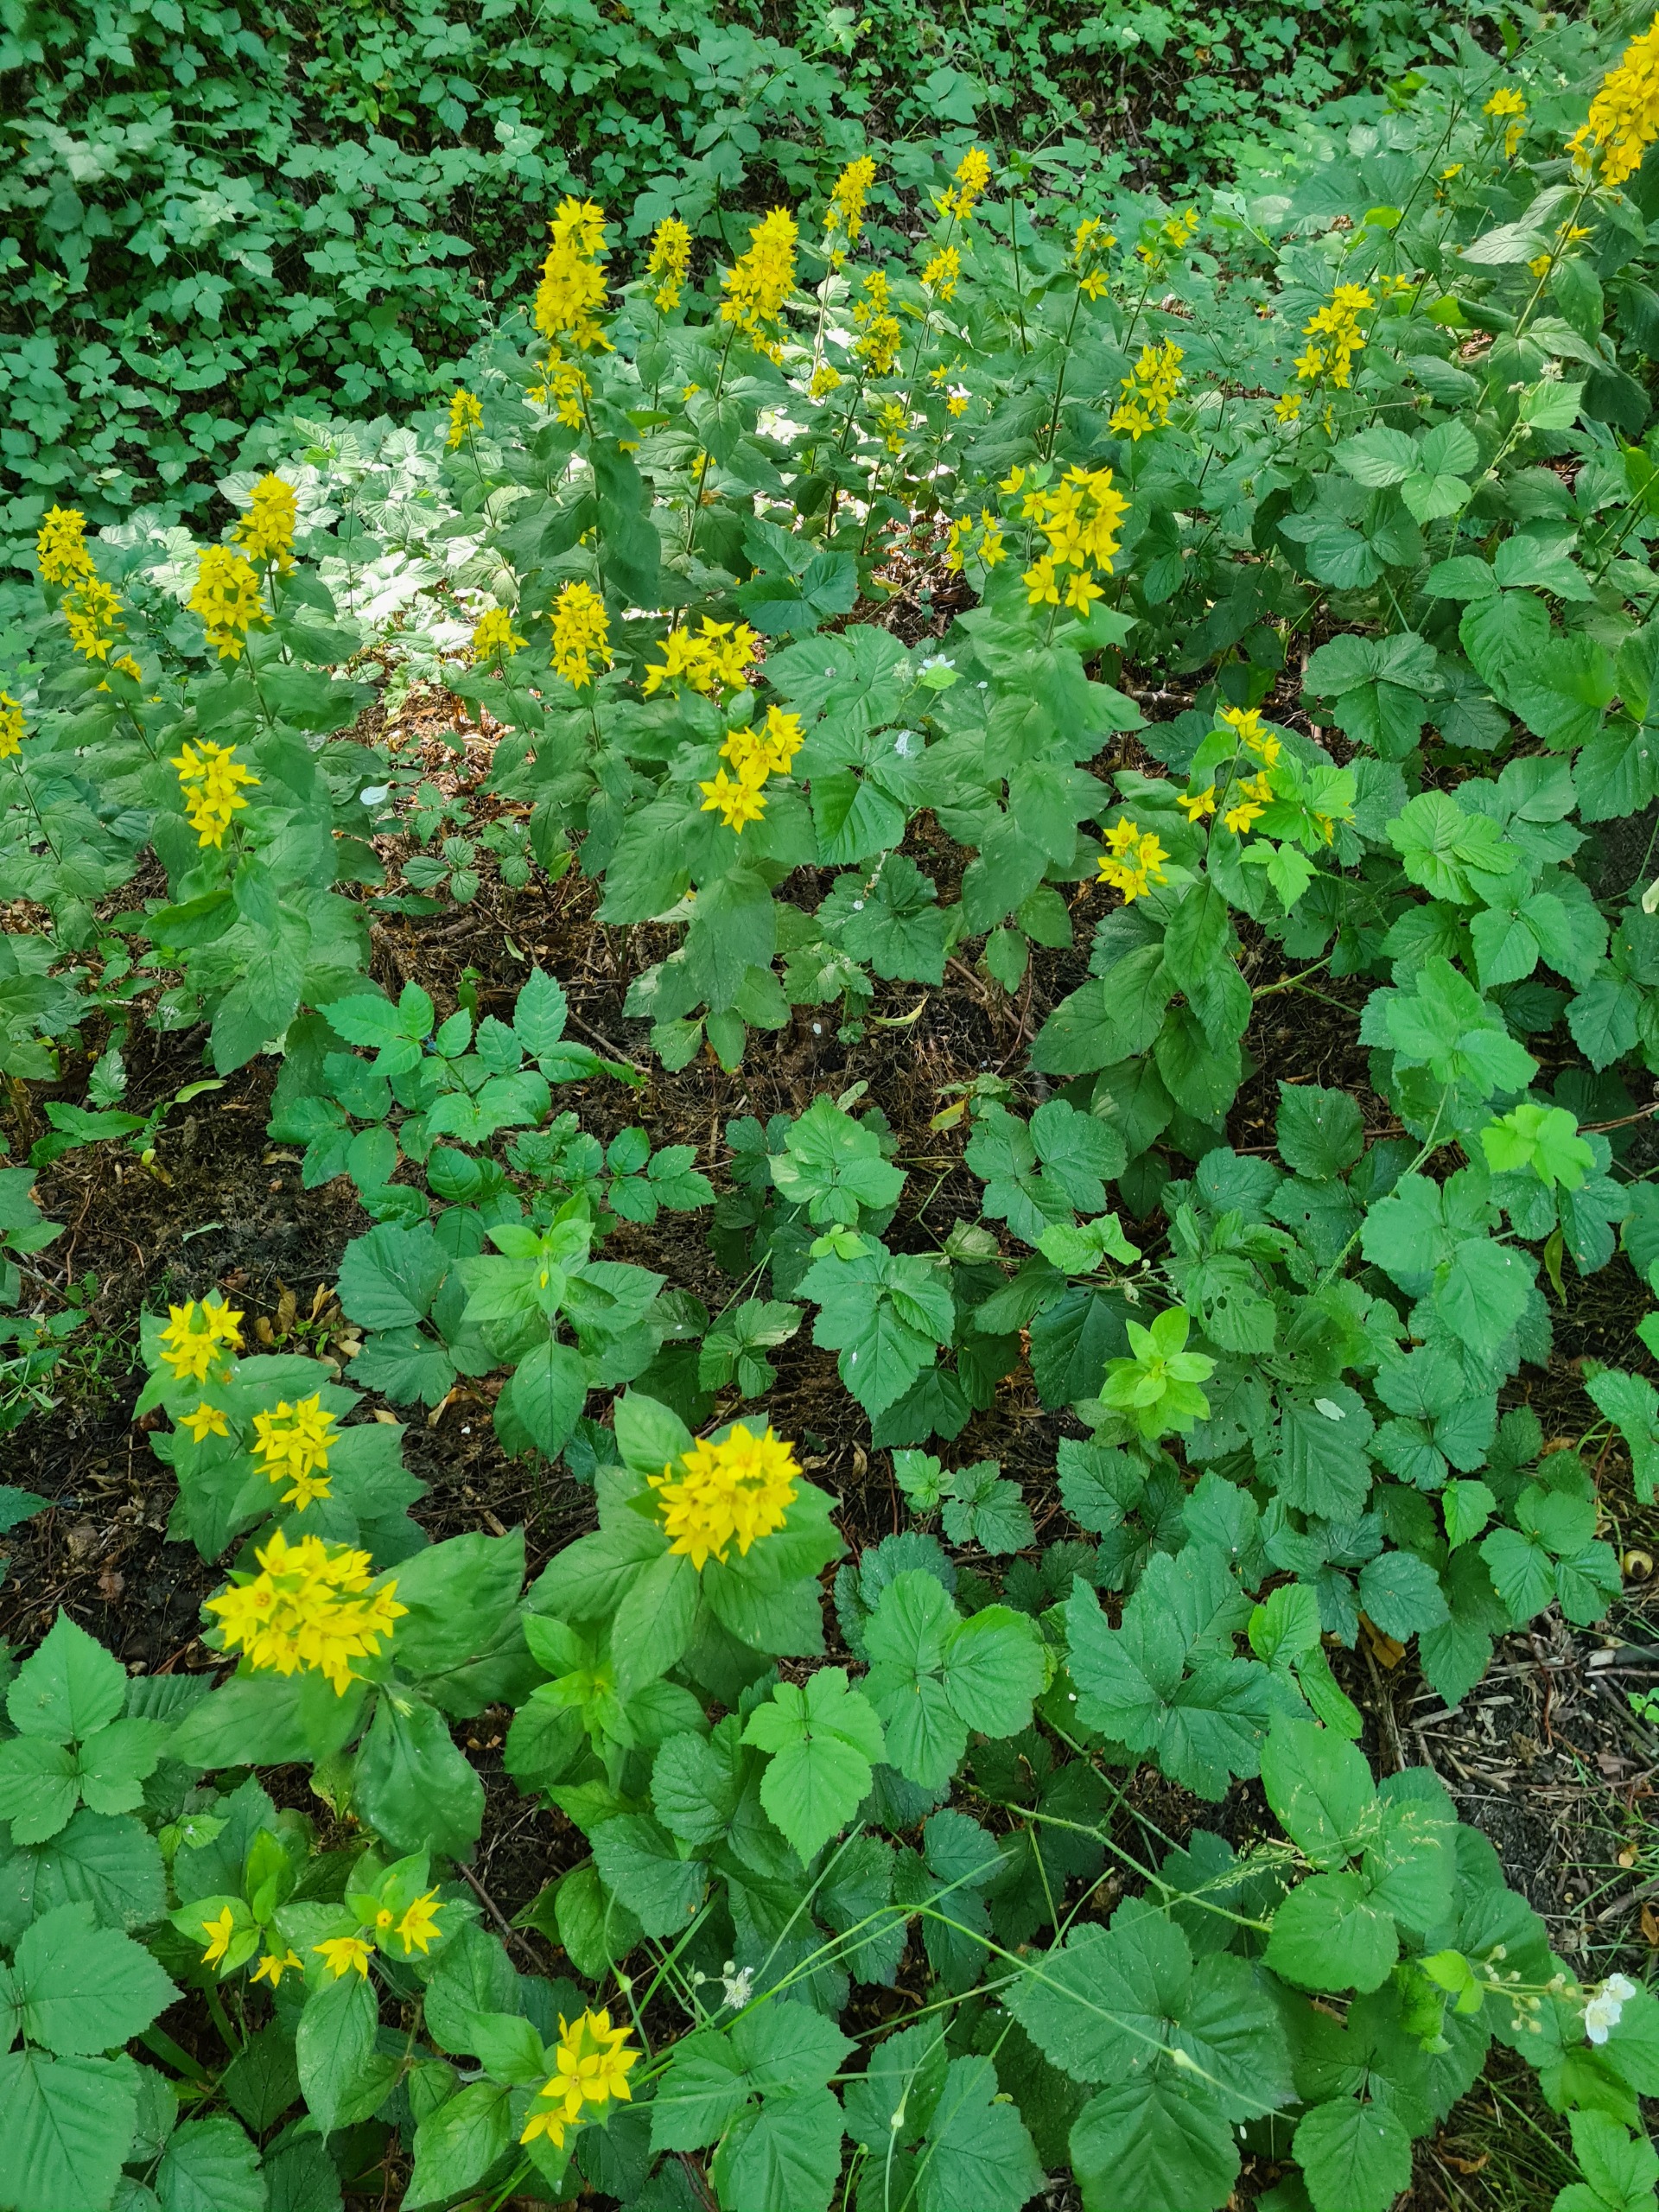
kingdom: Plantae
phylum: Tracheophyta
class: Magnoliopsida
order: Ericales
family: Primulaceae
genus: Lysimachia
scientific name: Lysimachia punctata
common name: Prikbladet fredløs
